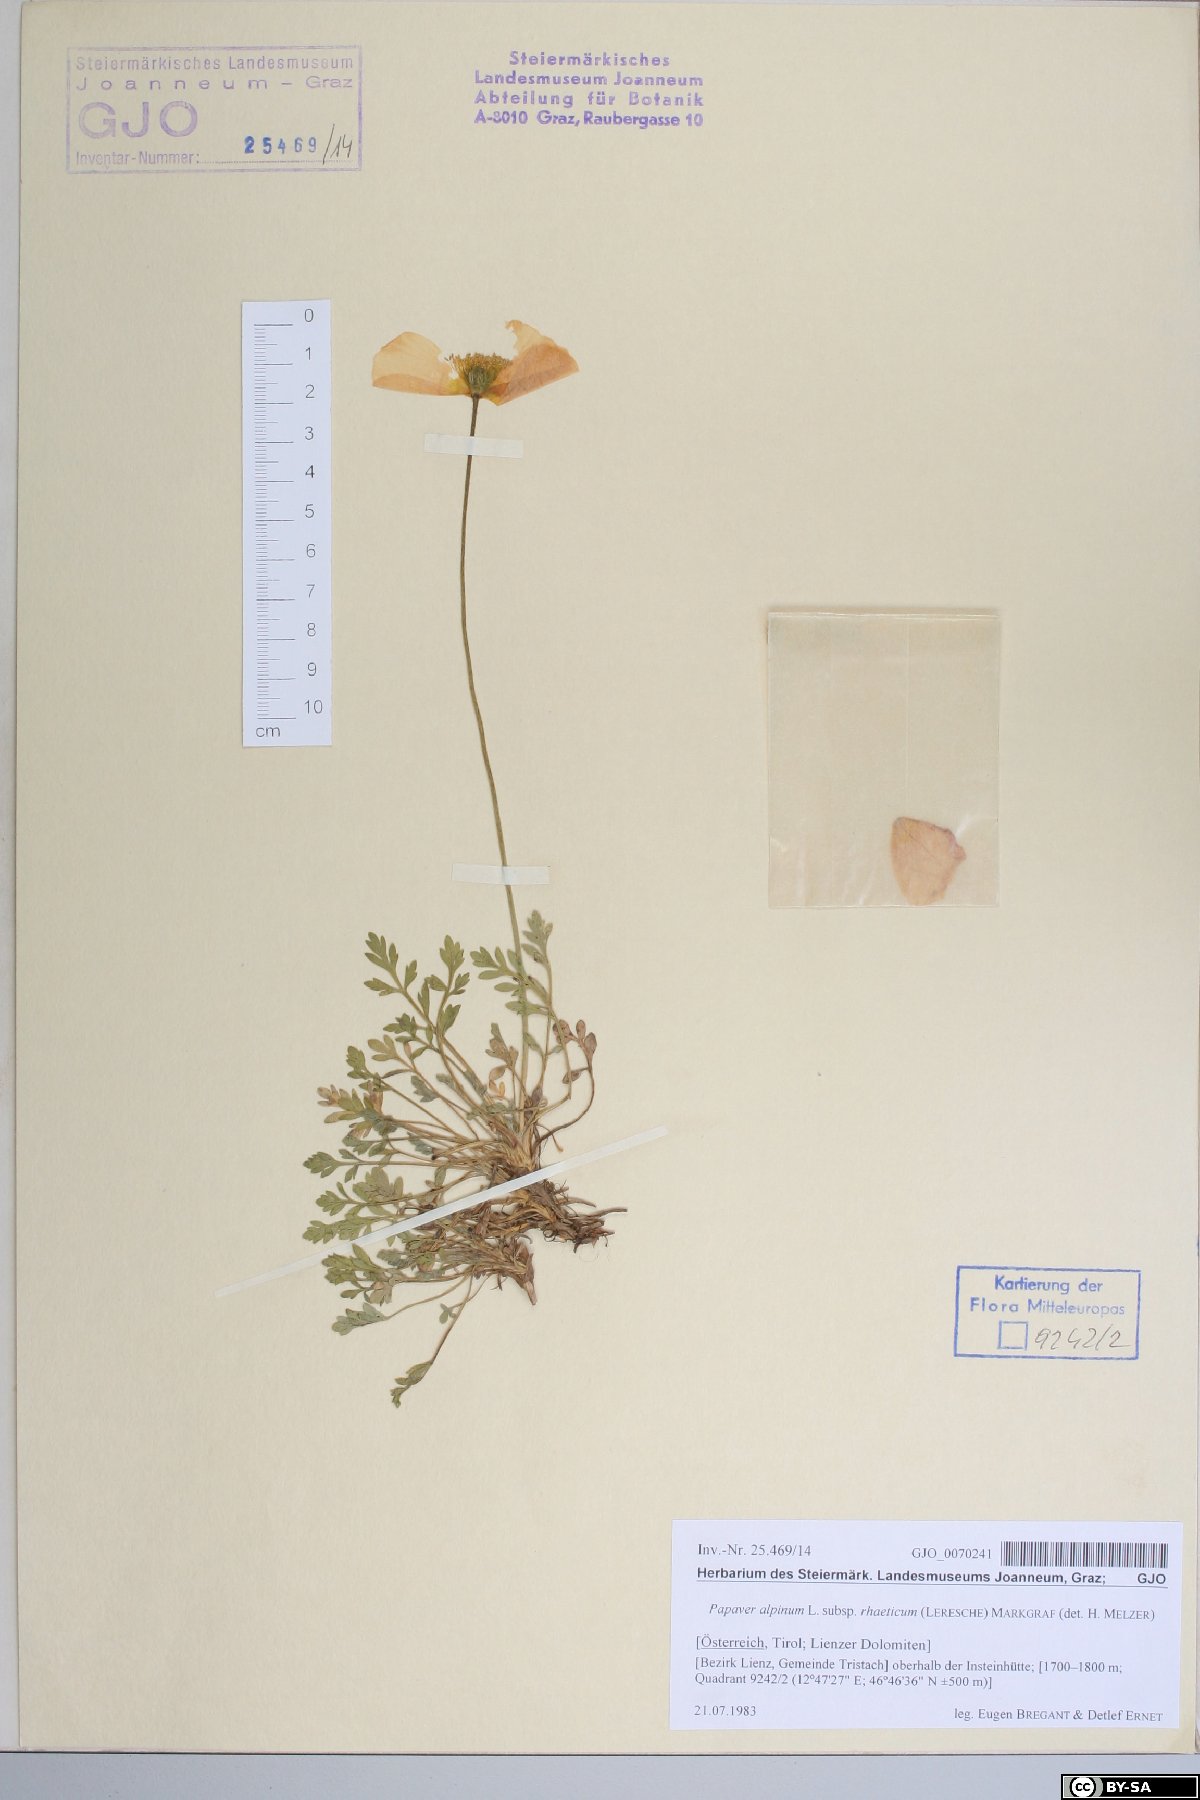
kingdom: Plantae
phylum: Tracheophyta
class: Magnoliopsida
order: Ranunculales
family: Papaveraceae
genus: Papaver
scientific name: Papaver alpinum
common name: Austrian poppy
